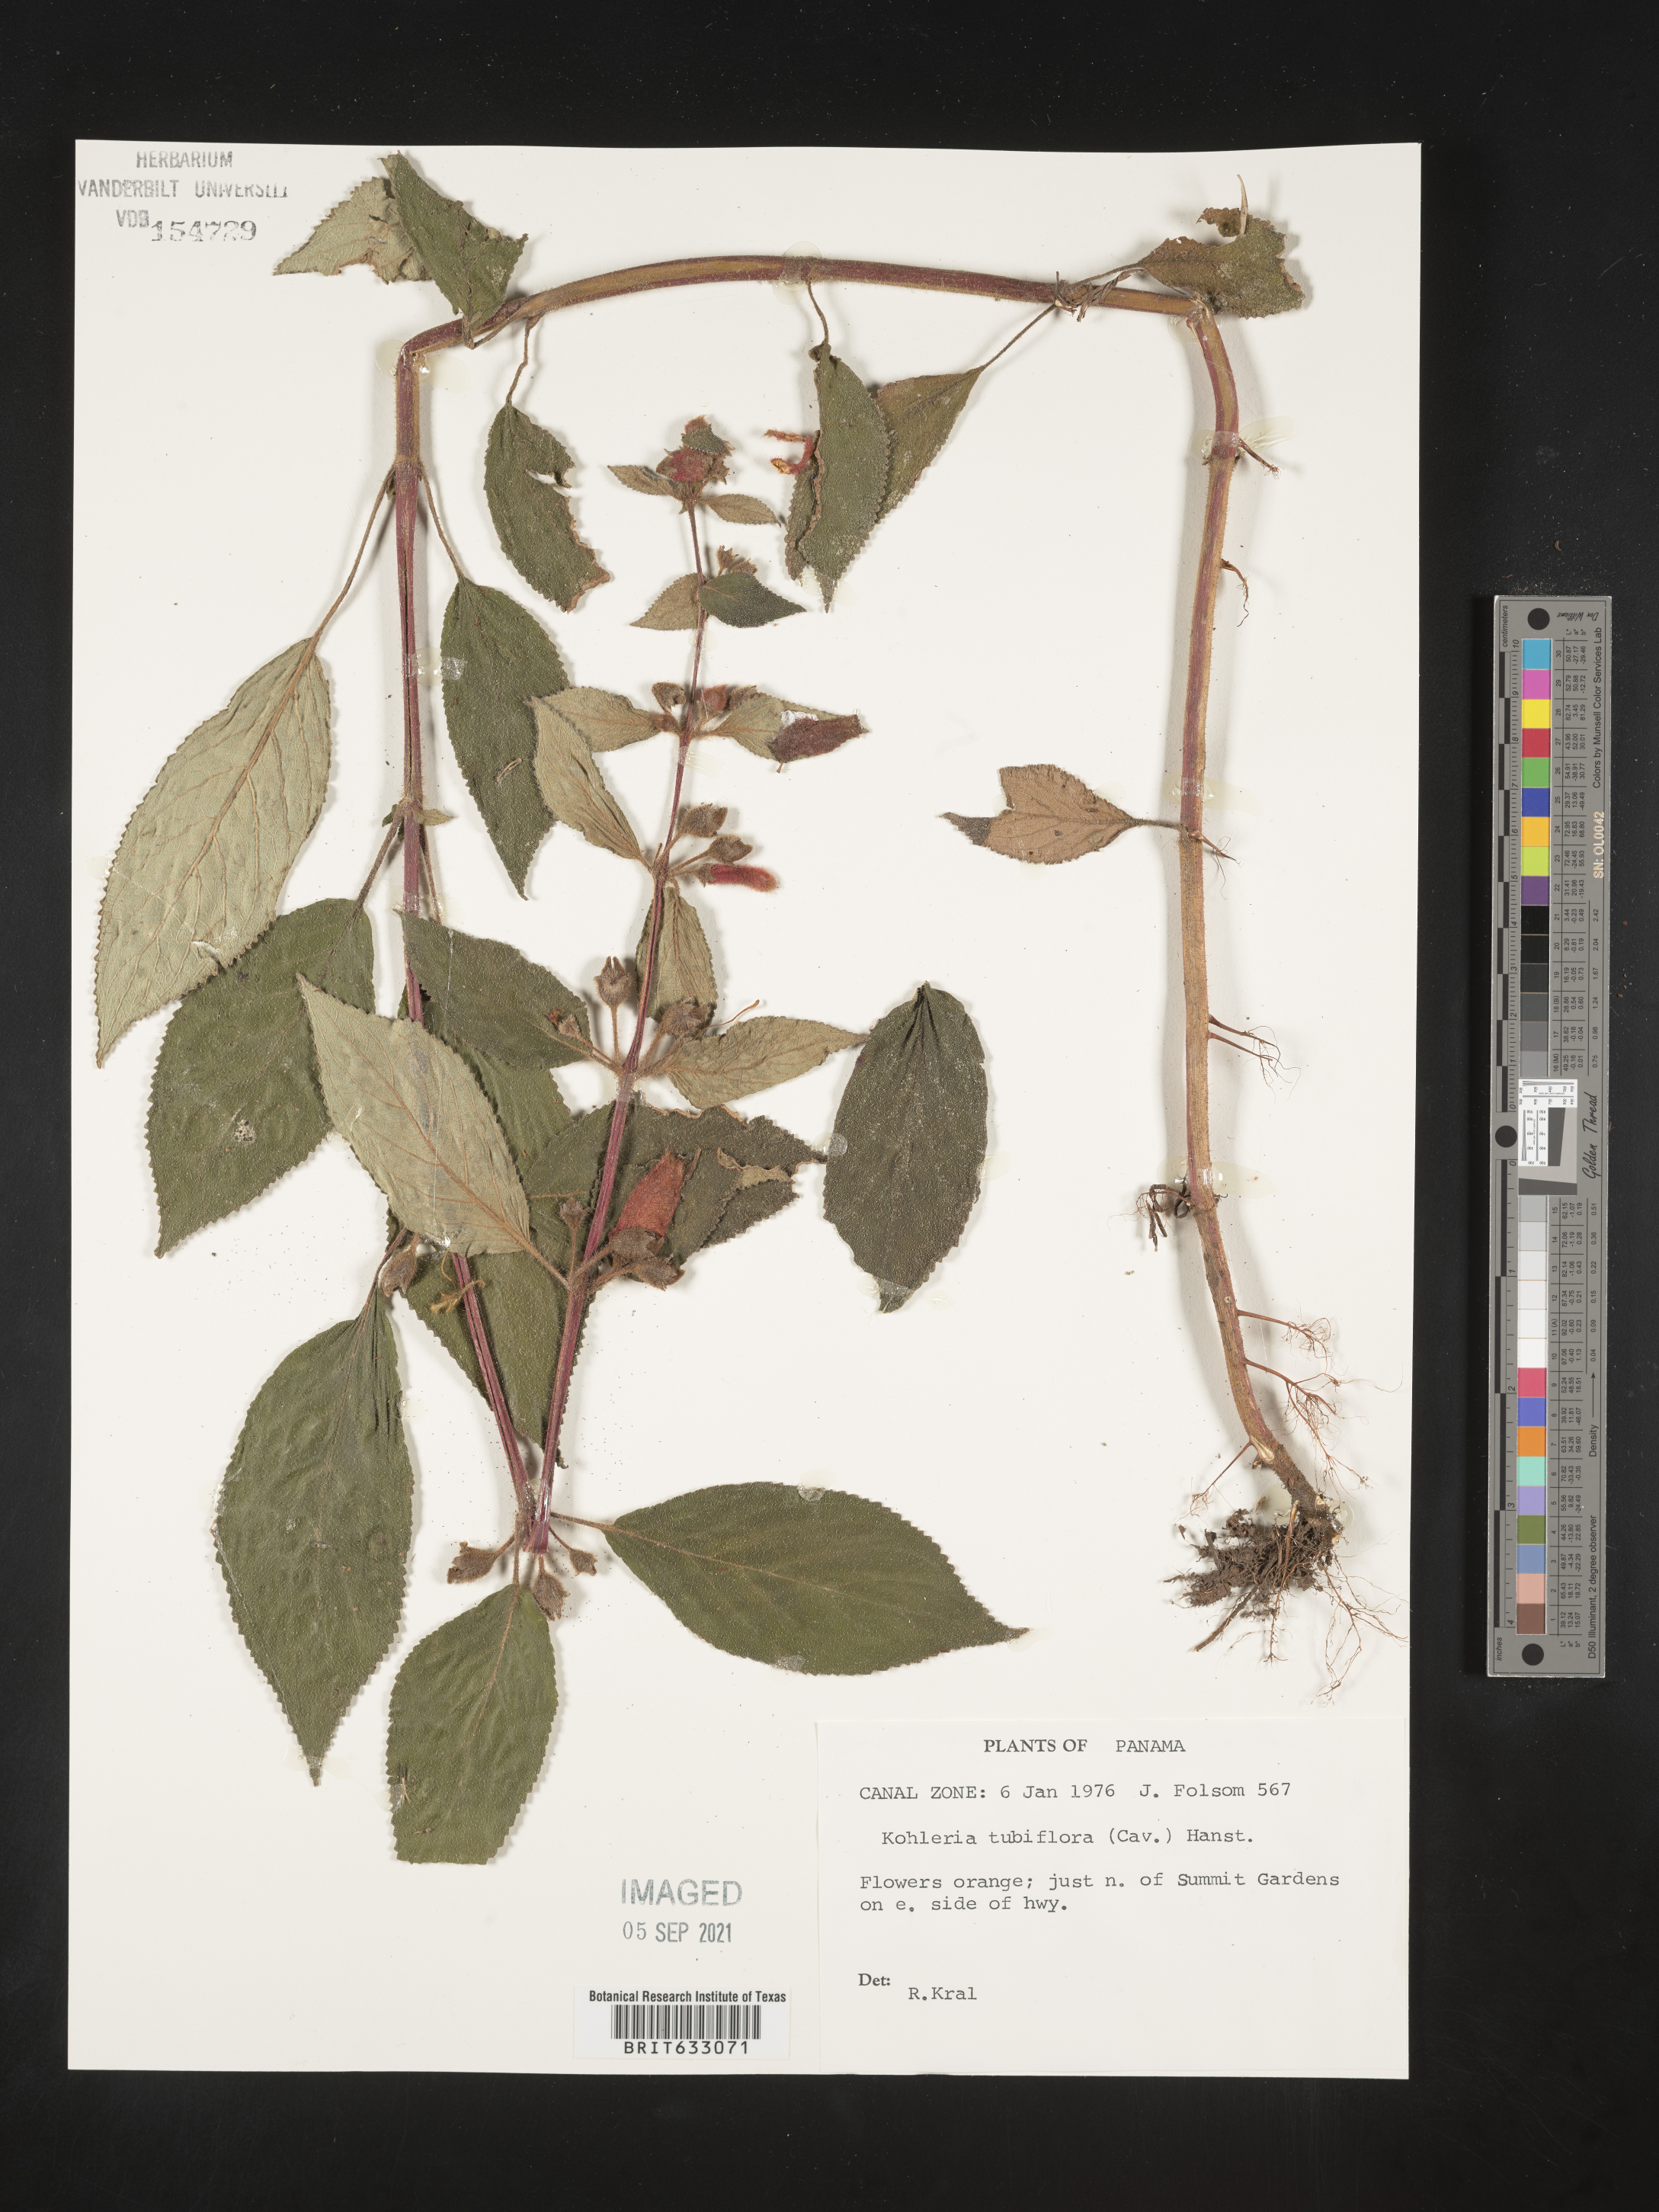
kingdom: Plantae
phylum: Tracheophyta
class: Magnoliopsida
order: Lamiales
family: Gesneriaceae
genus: Kohleria
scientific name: Kohleria
